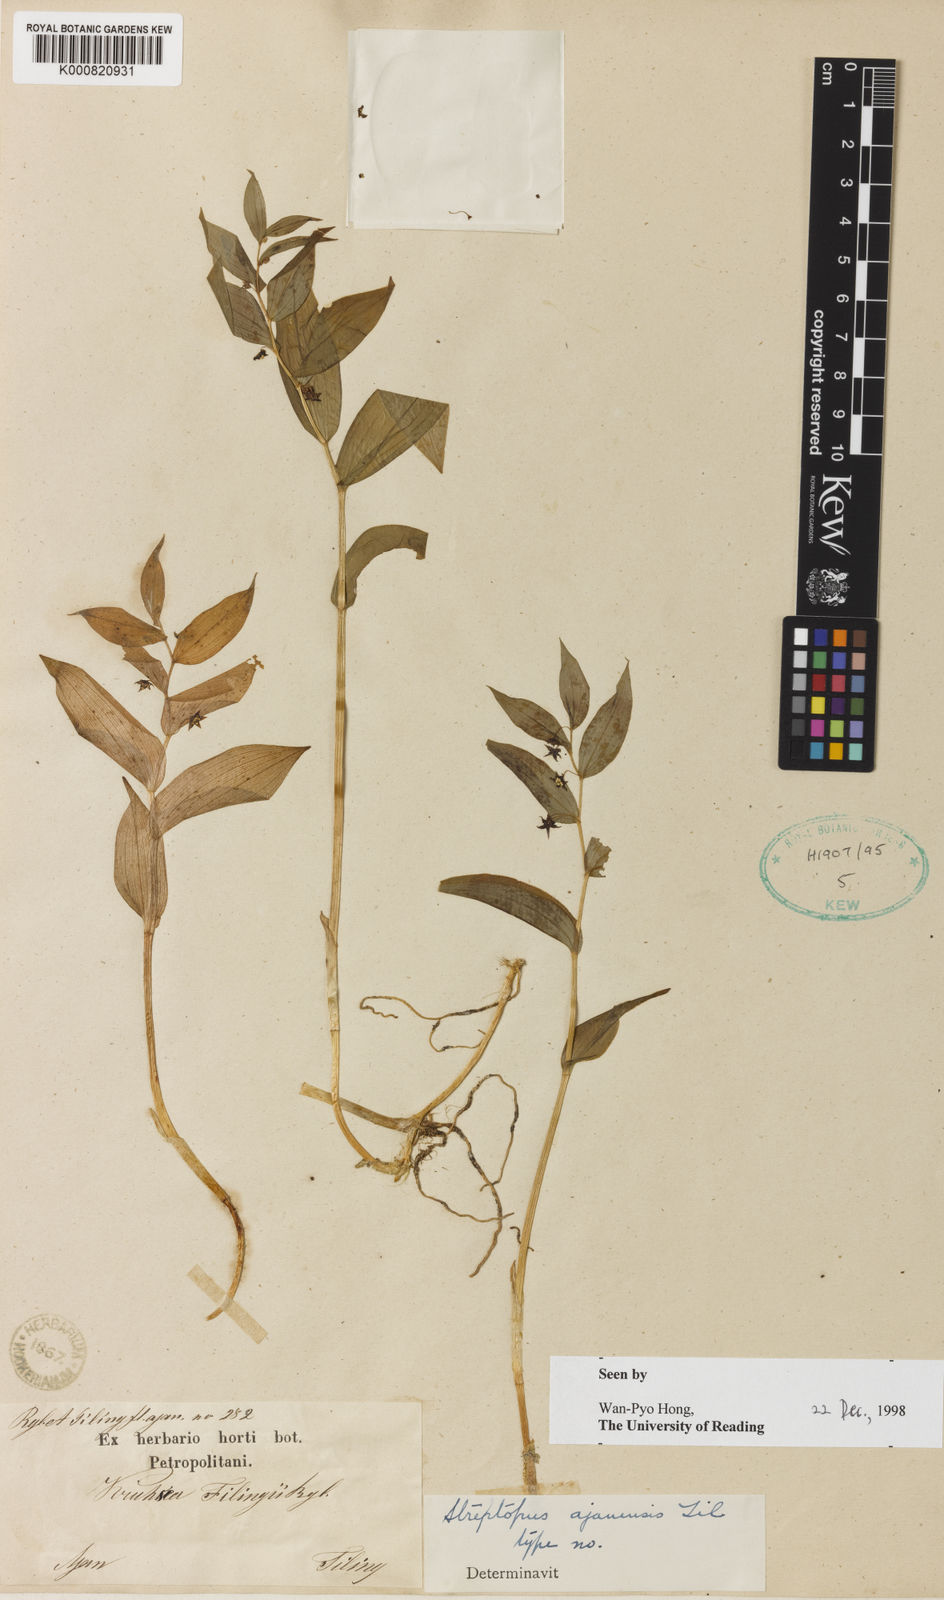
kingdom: Plantae
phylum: Tracheophyta
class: Liliopsida
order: Liliales
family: Liliaceae
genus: Streptopus
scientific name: Streptopus
